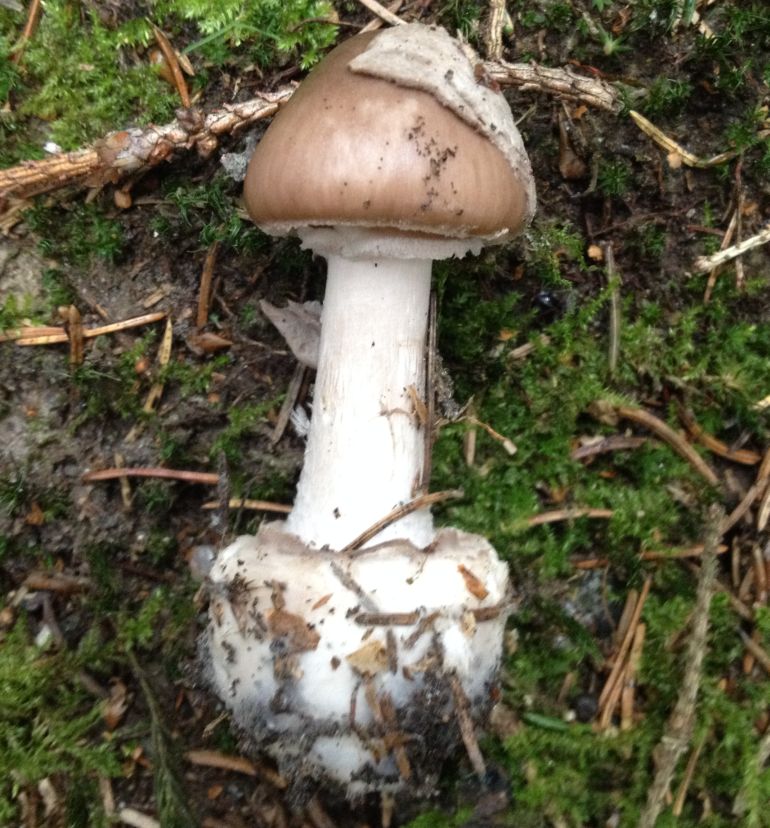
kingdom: Fungi
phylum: Basidiomycota
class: Agaricomycetes
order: Agaricales
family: Amanitaceae
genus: Amanita
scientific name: Amanita porphyria
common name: porfyr-fluesvamp
